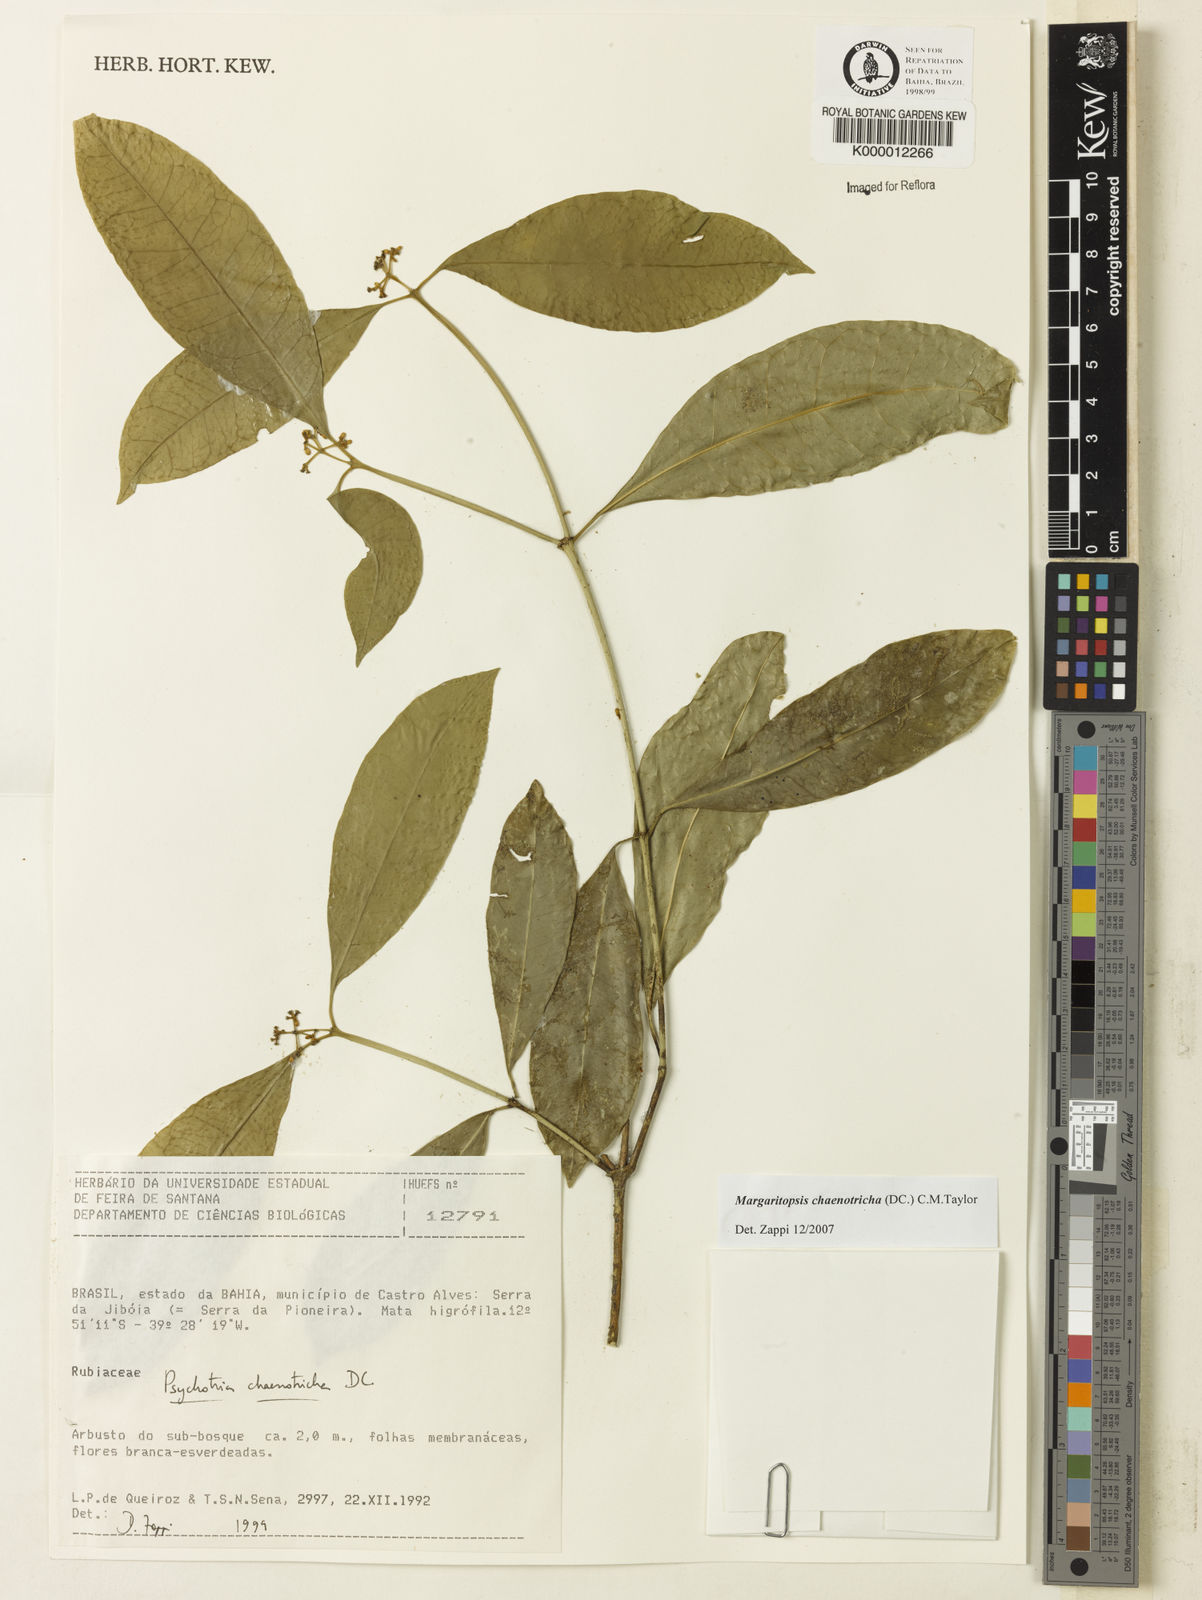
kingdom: Plantae
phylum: Tracheophyta
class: Magnoliopsida
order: Gentianales
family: Rubiaceae
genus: Eumachia
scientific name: Eumachia chaenotricha
